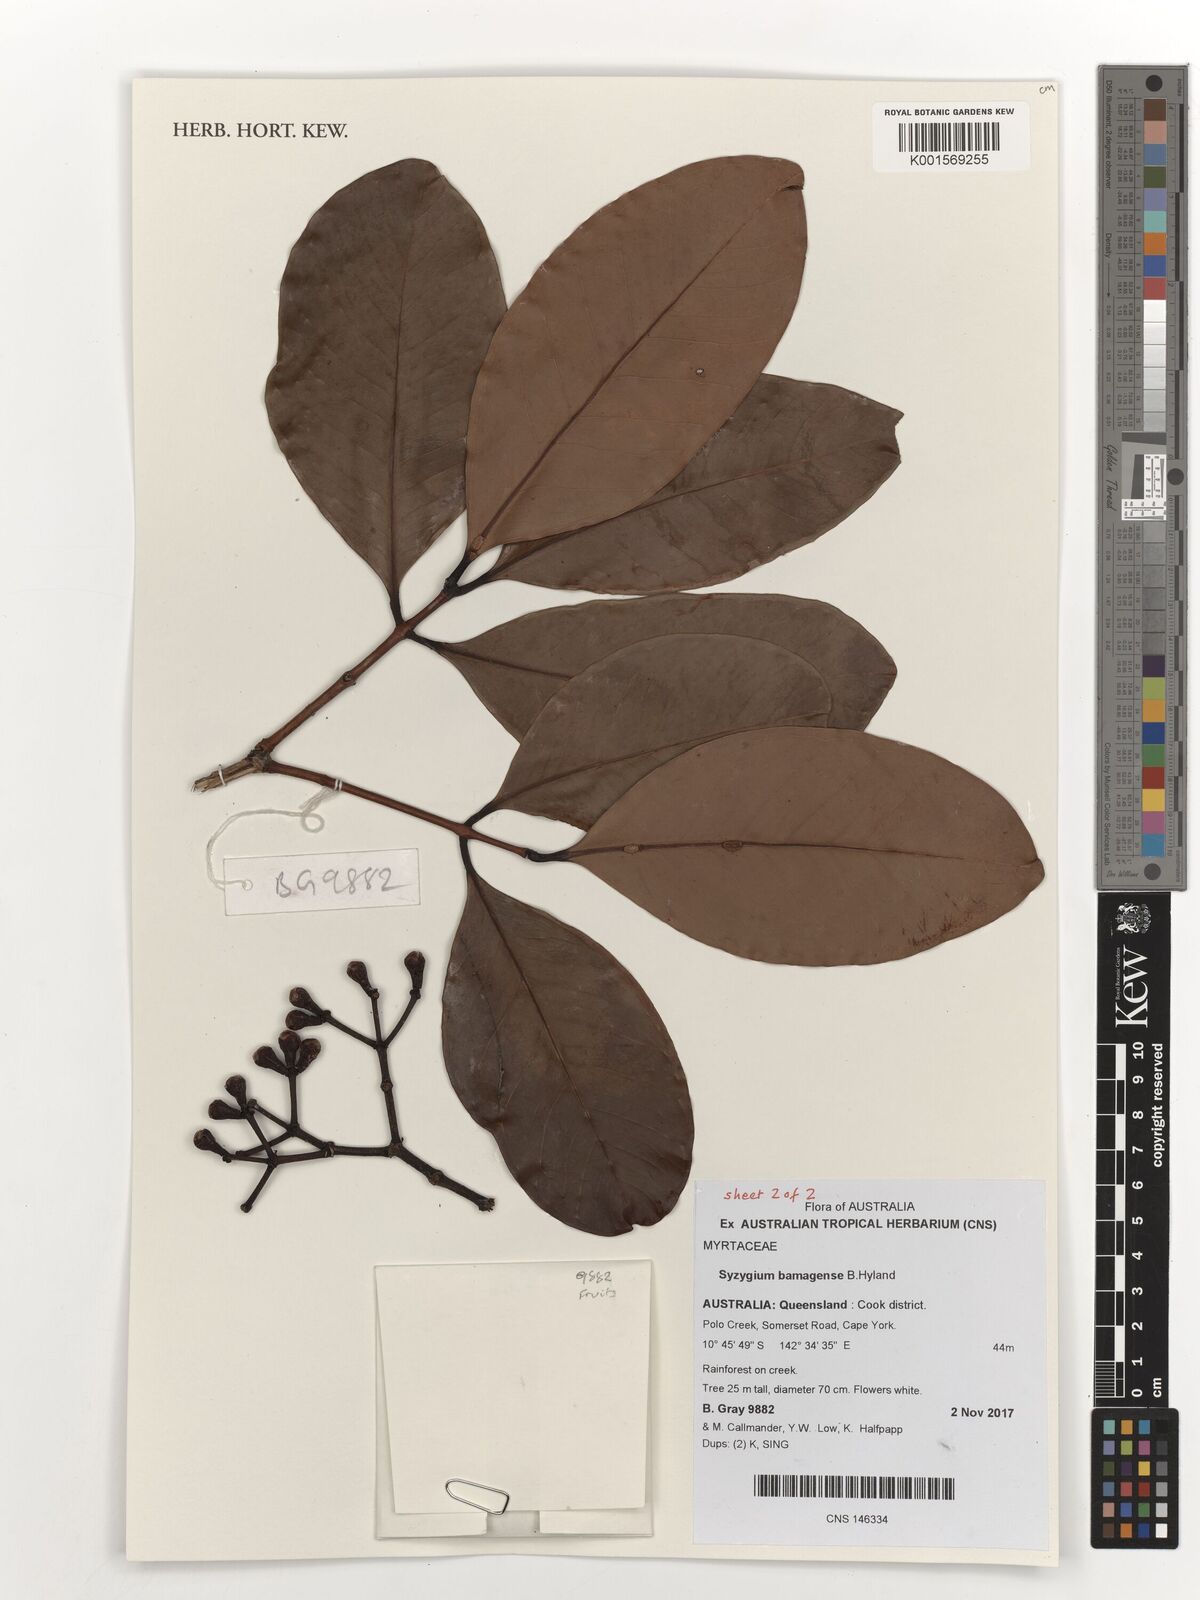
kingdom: Plantae
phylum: Tracheophyta
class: Magnoliopsida
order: Myrtales
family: Myrtaceae
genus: Syzygium
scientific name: Syzygium bamagense
